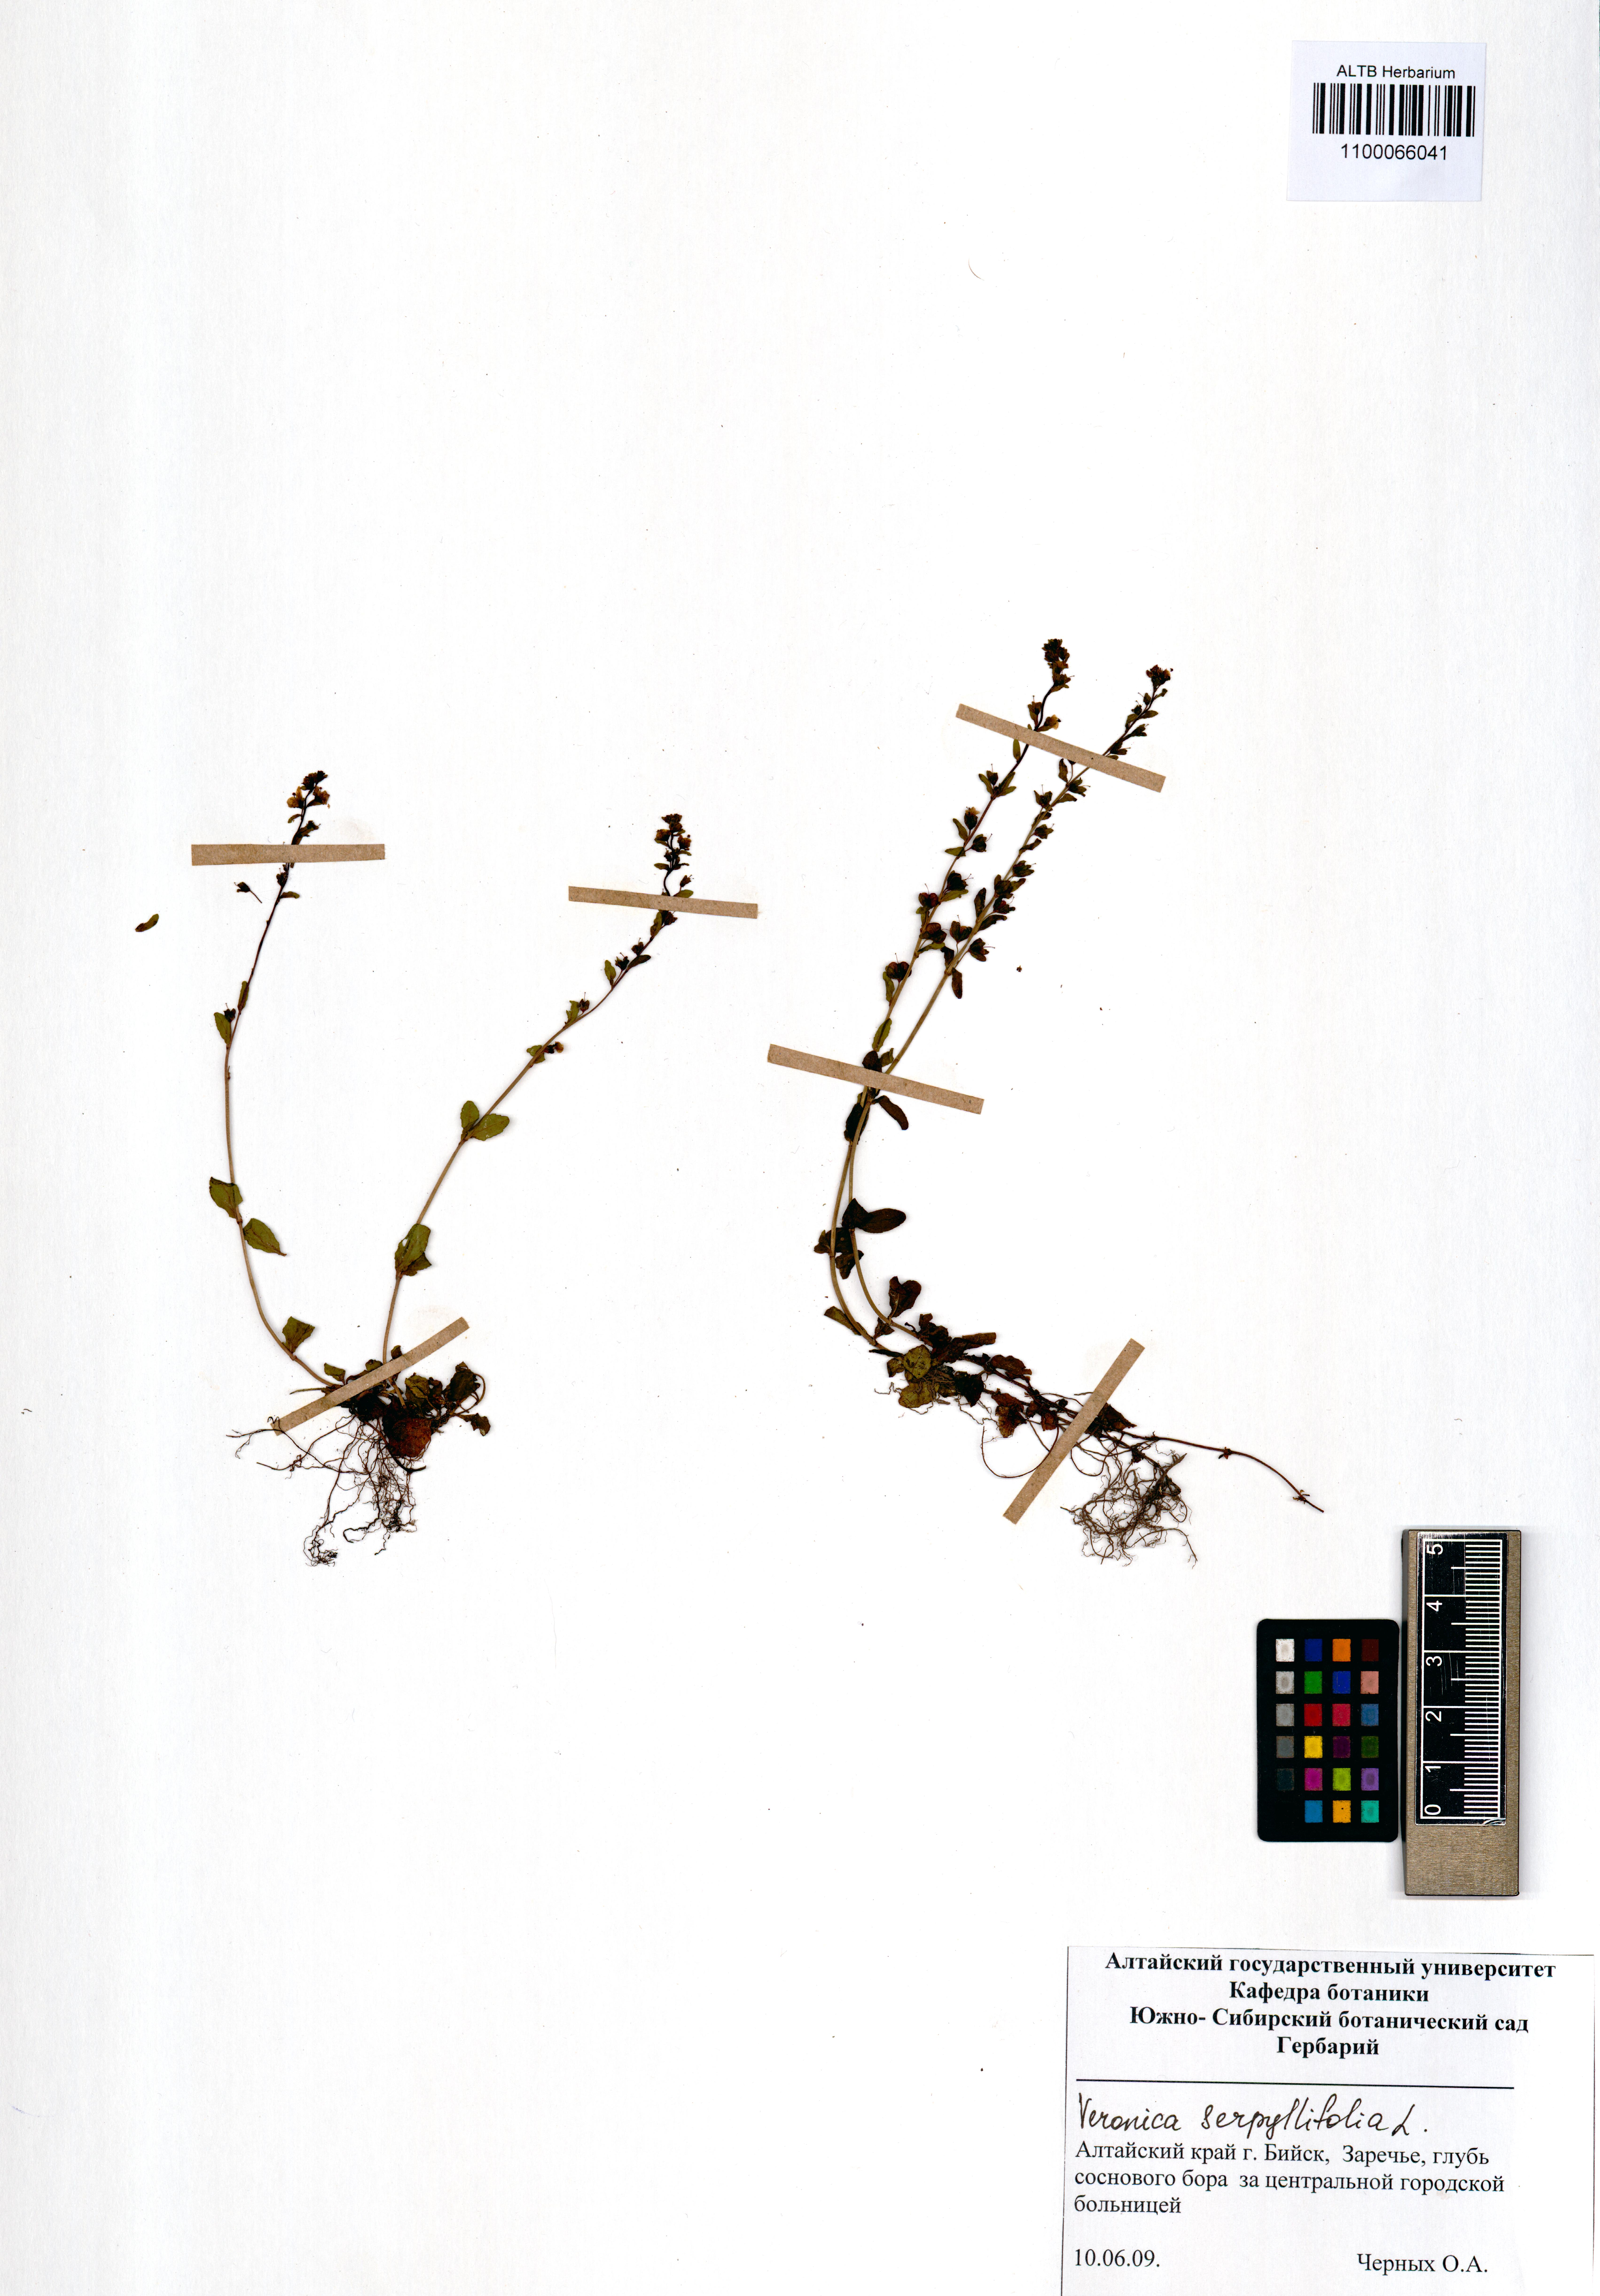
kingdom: Plantae
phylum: Tracheophyta
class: Magnoliopsida
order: Lamiales
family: Plantaginaceae
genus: Veronica
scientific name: Veronica serpyllifolia
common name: Thyme-leaved speedwell
